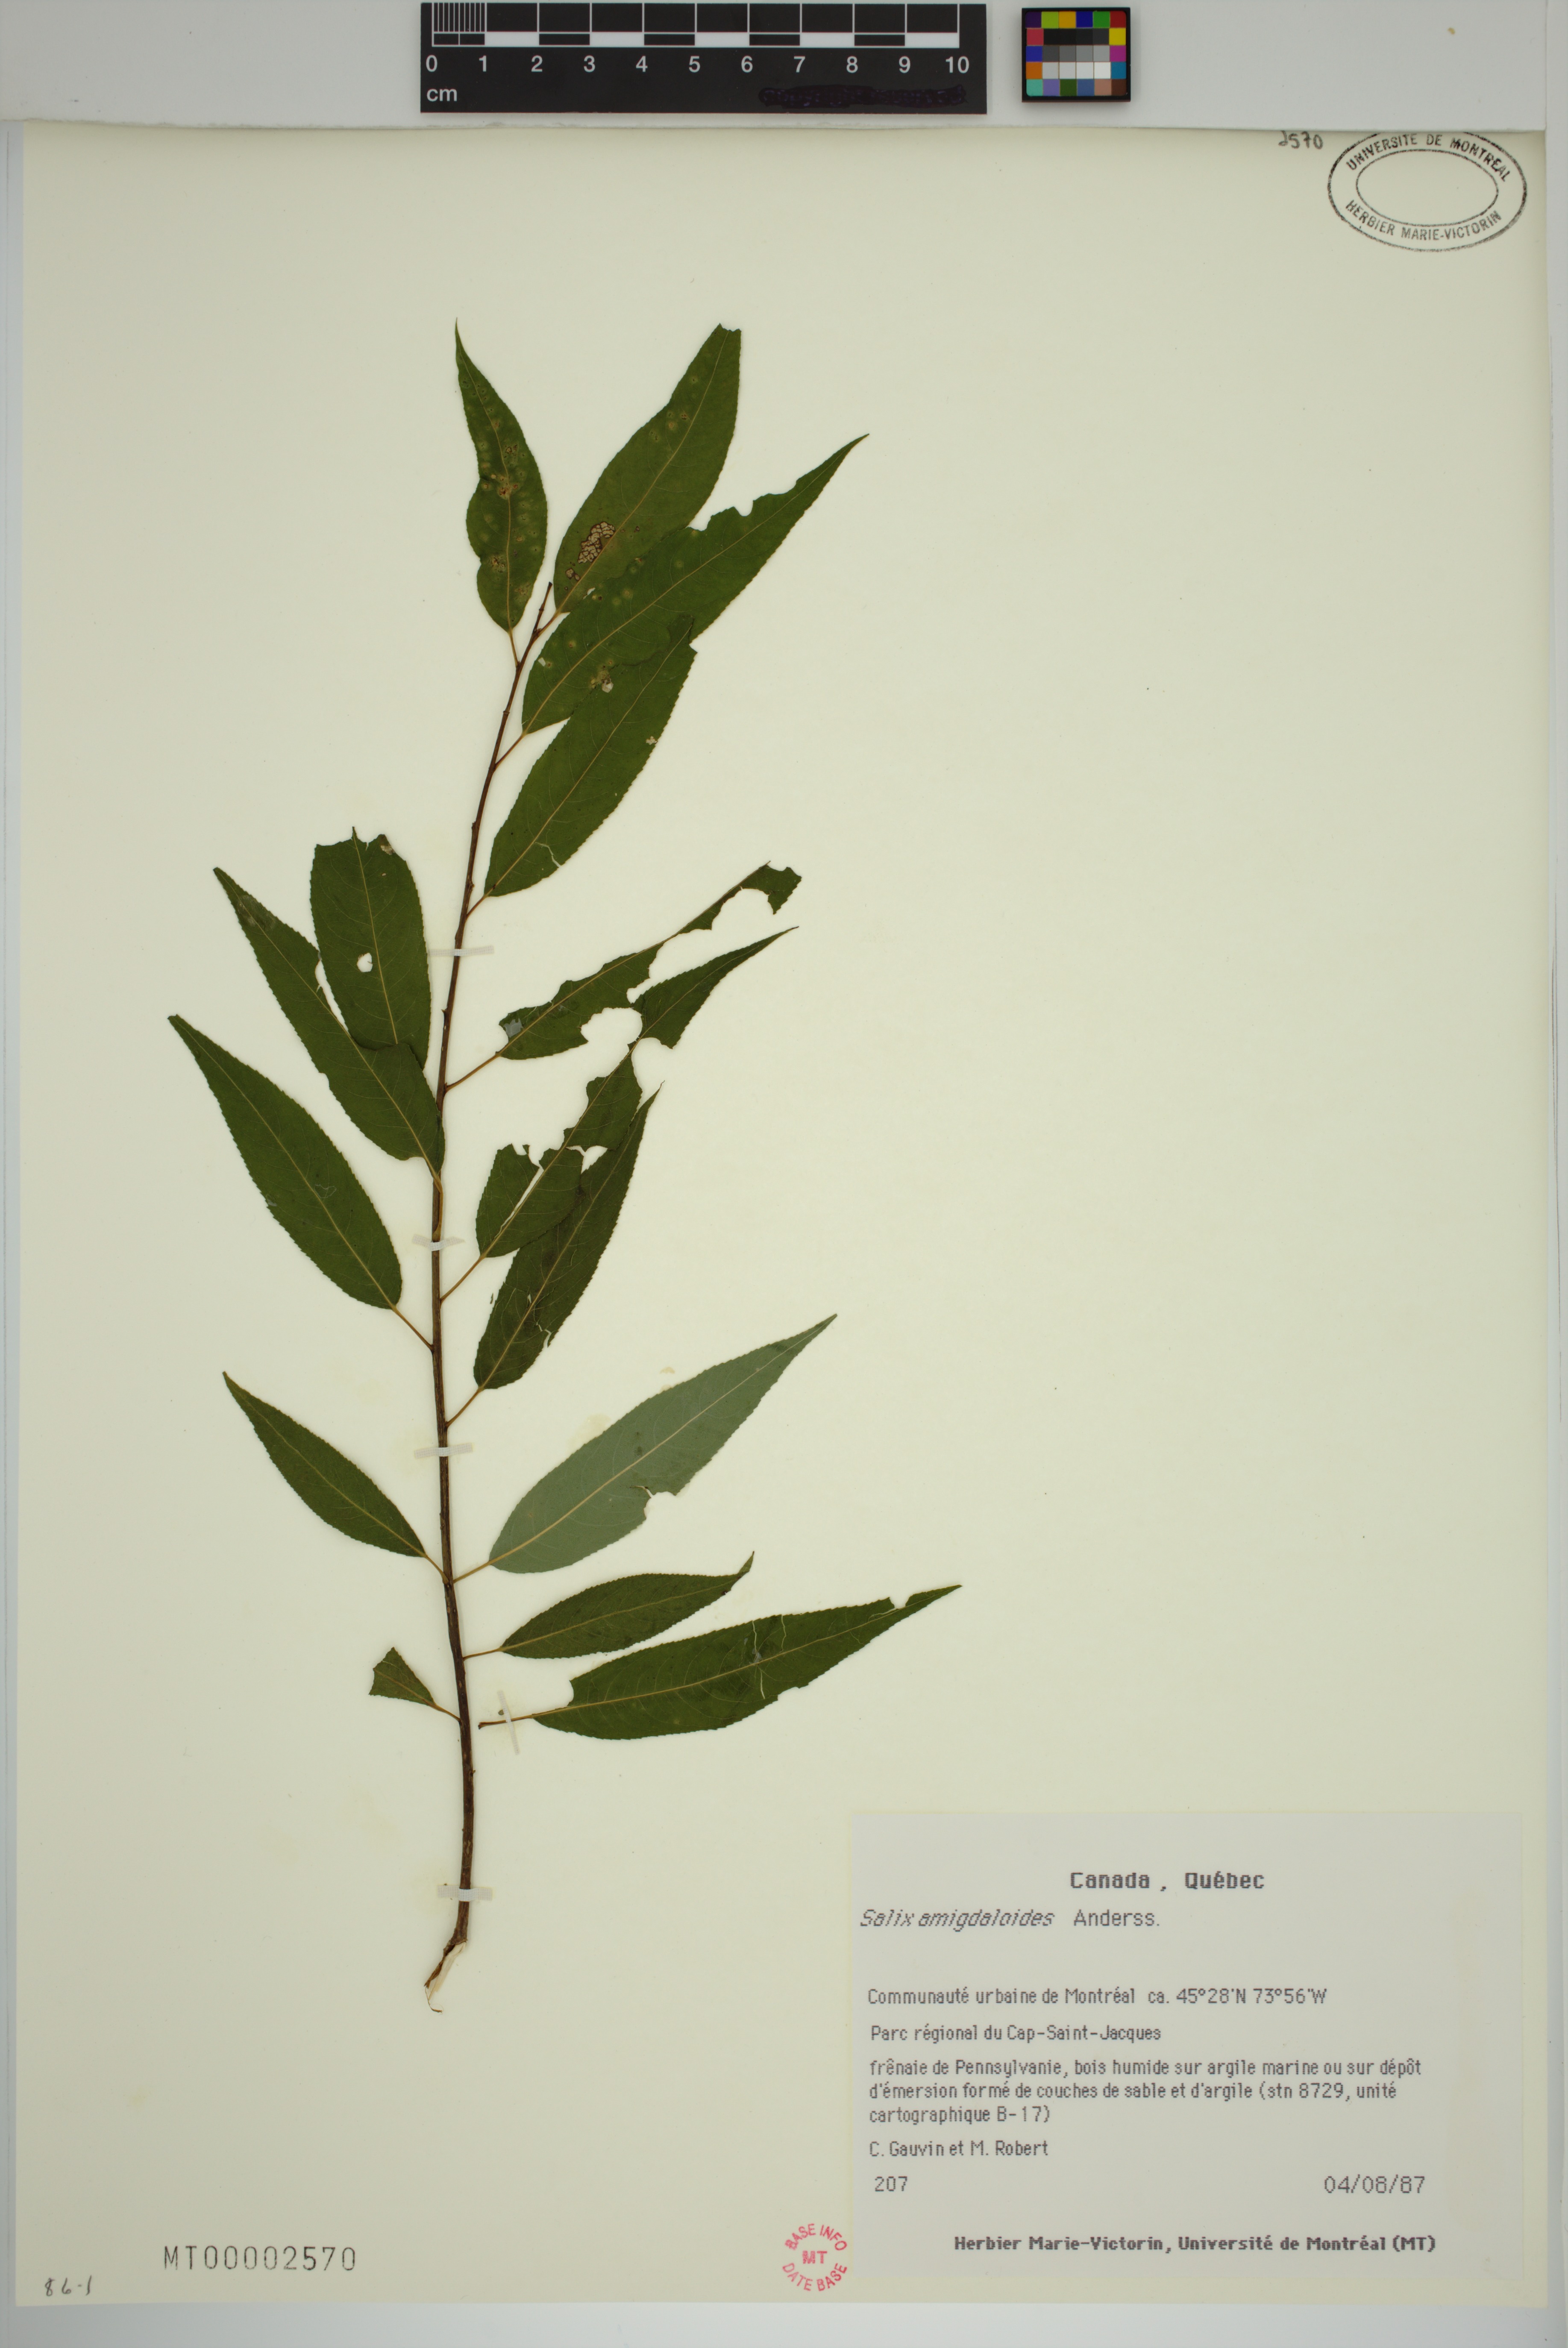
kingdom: Plantae
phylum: Tracheophyta
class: Magnoliopsida
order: Malpighiales
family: Salicaceae
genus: Salix
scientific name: Salix amygdaloides
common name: Peach leaf willow
